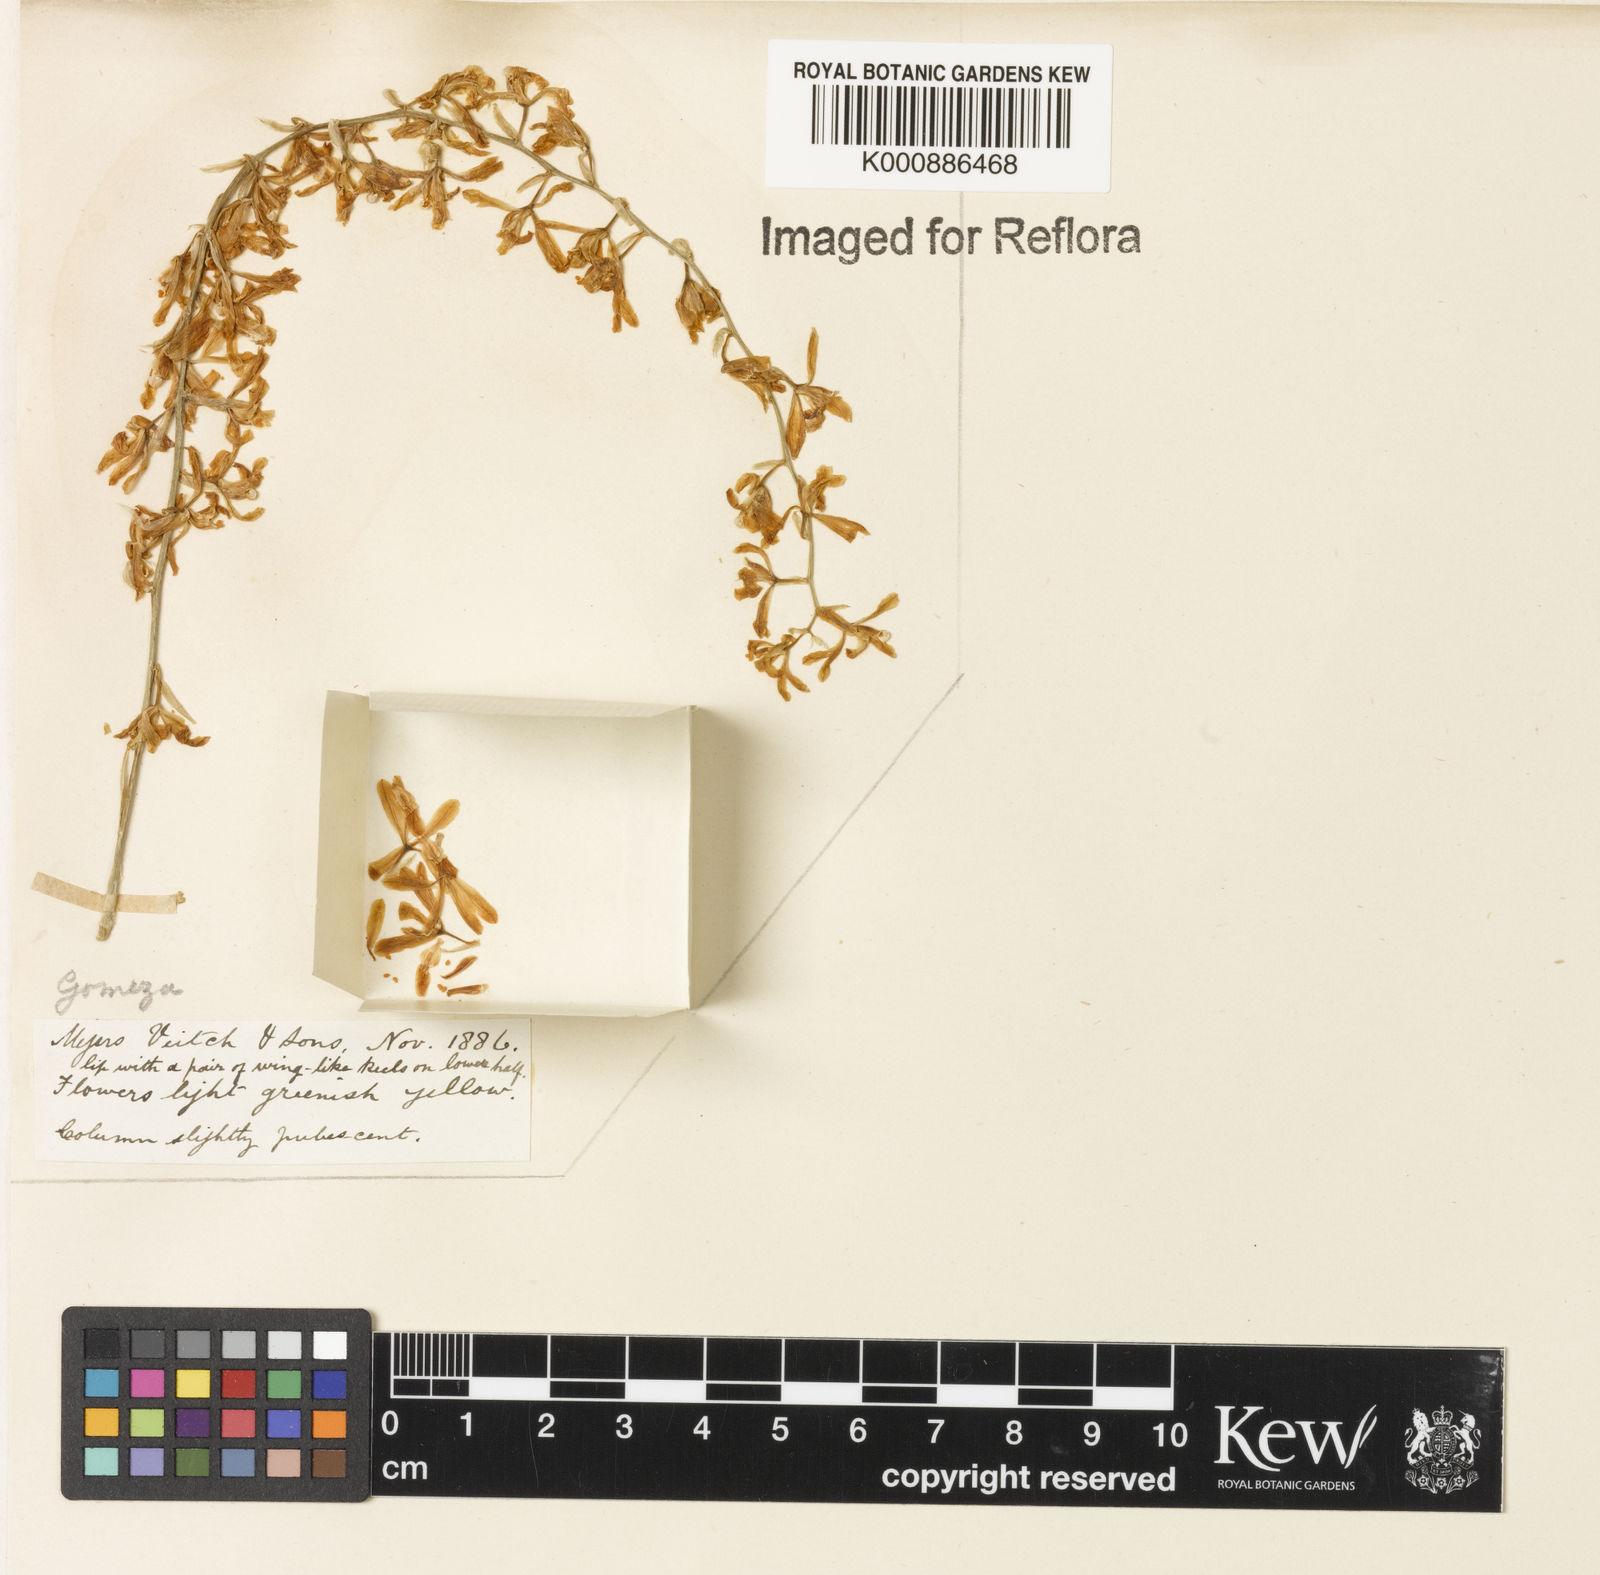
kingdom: Plantae
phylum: Tracheophyta
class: Liliopsida
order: Asparagales
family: Orchidaceae
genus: Gomesa
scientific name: Gomesa recurva
